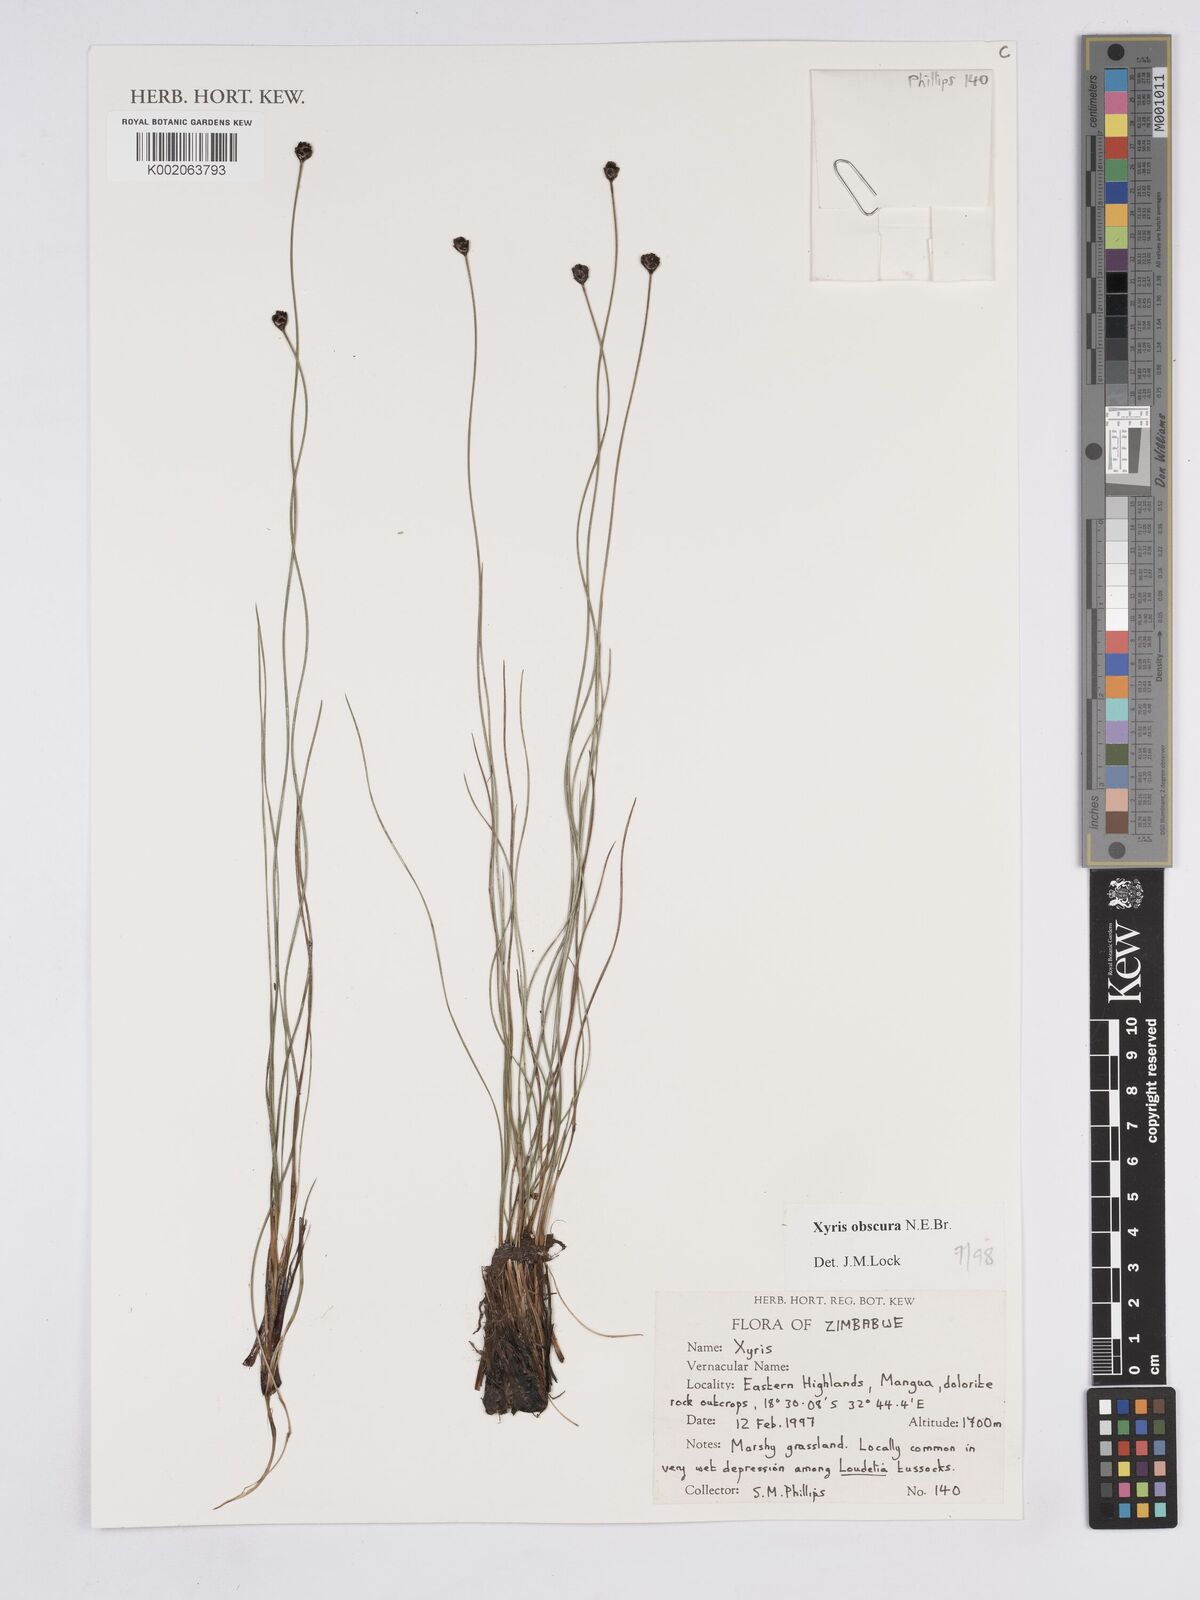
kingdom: Plantae
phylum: Tracheophyta
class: Liliopsida
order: Poales
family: Xyridaceae
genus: Xyris
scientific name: Xyris obscura
